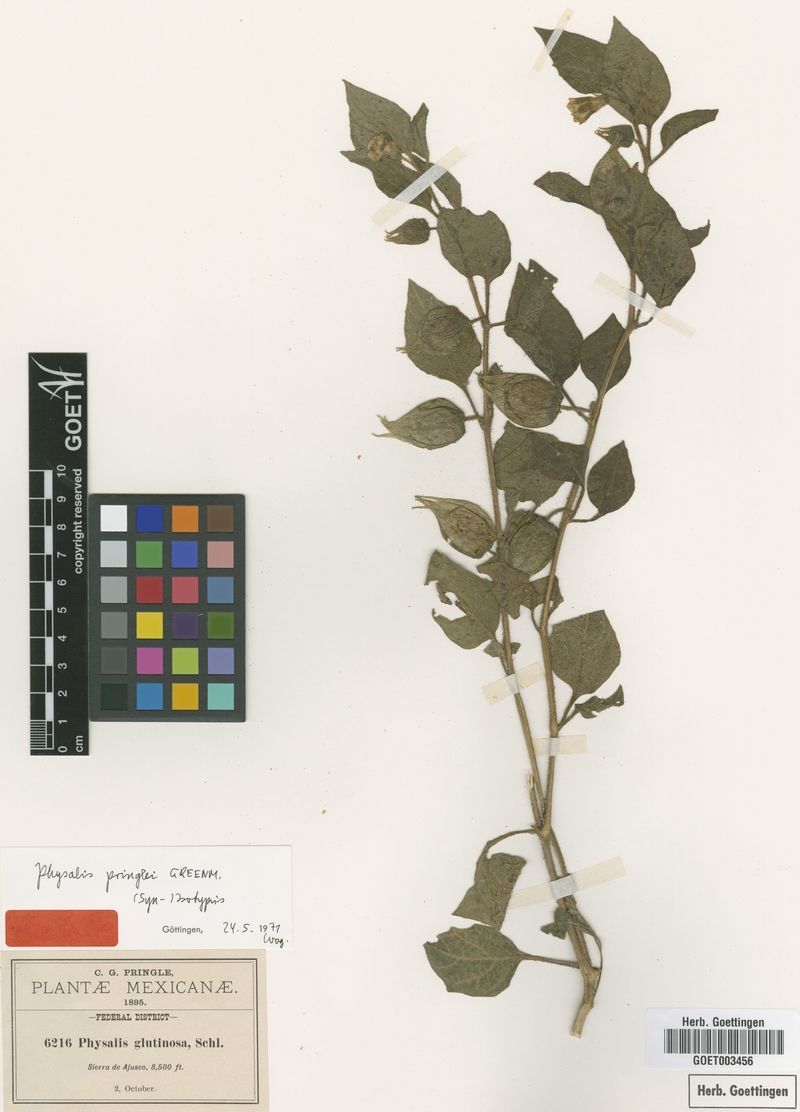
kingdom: Plantae
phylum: Tracheophyta
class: Magnoliopsida
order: Solanales
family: Solanaceae
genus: Physalis
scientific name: Physalis pringlei
